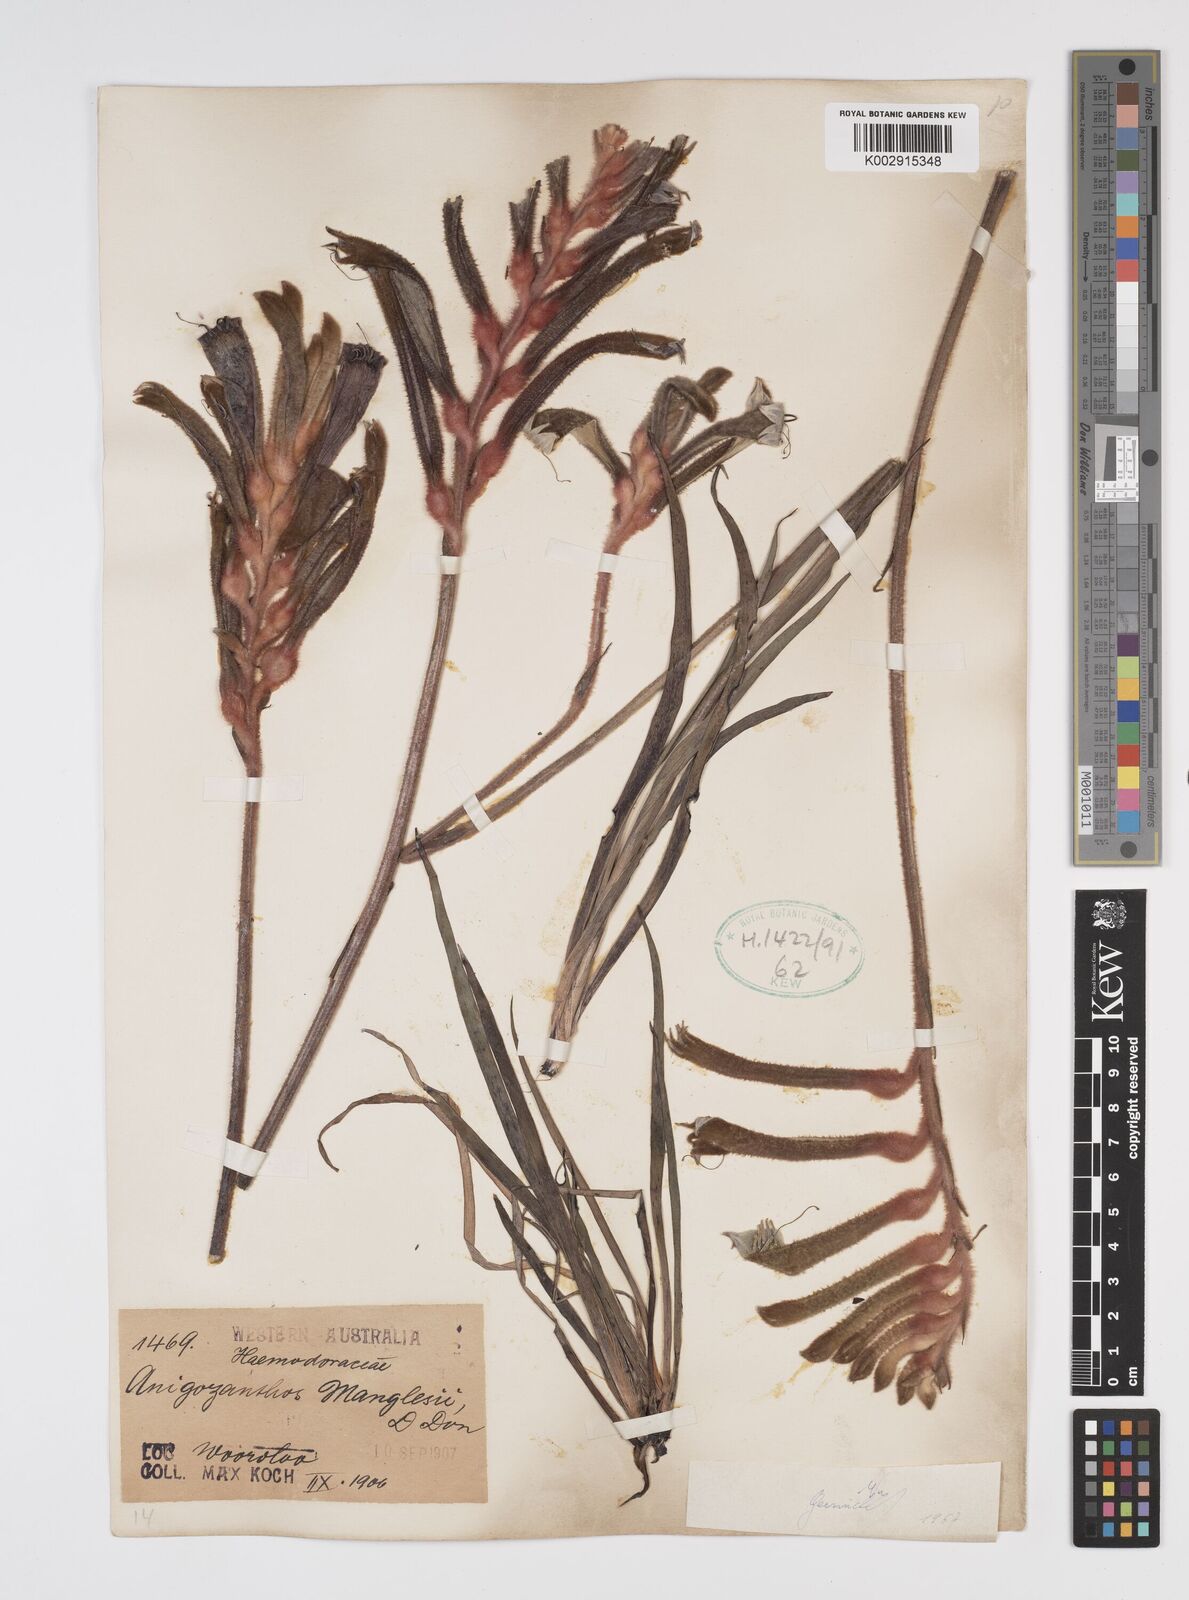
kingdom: Plantae
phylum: Tracheophyta
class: Liliopsida
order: Commelinales
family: Haemodoraceae
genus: Anigozanthos
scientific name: Anigozanthos manglesii
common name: Mangles's kangaroo-paw
